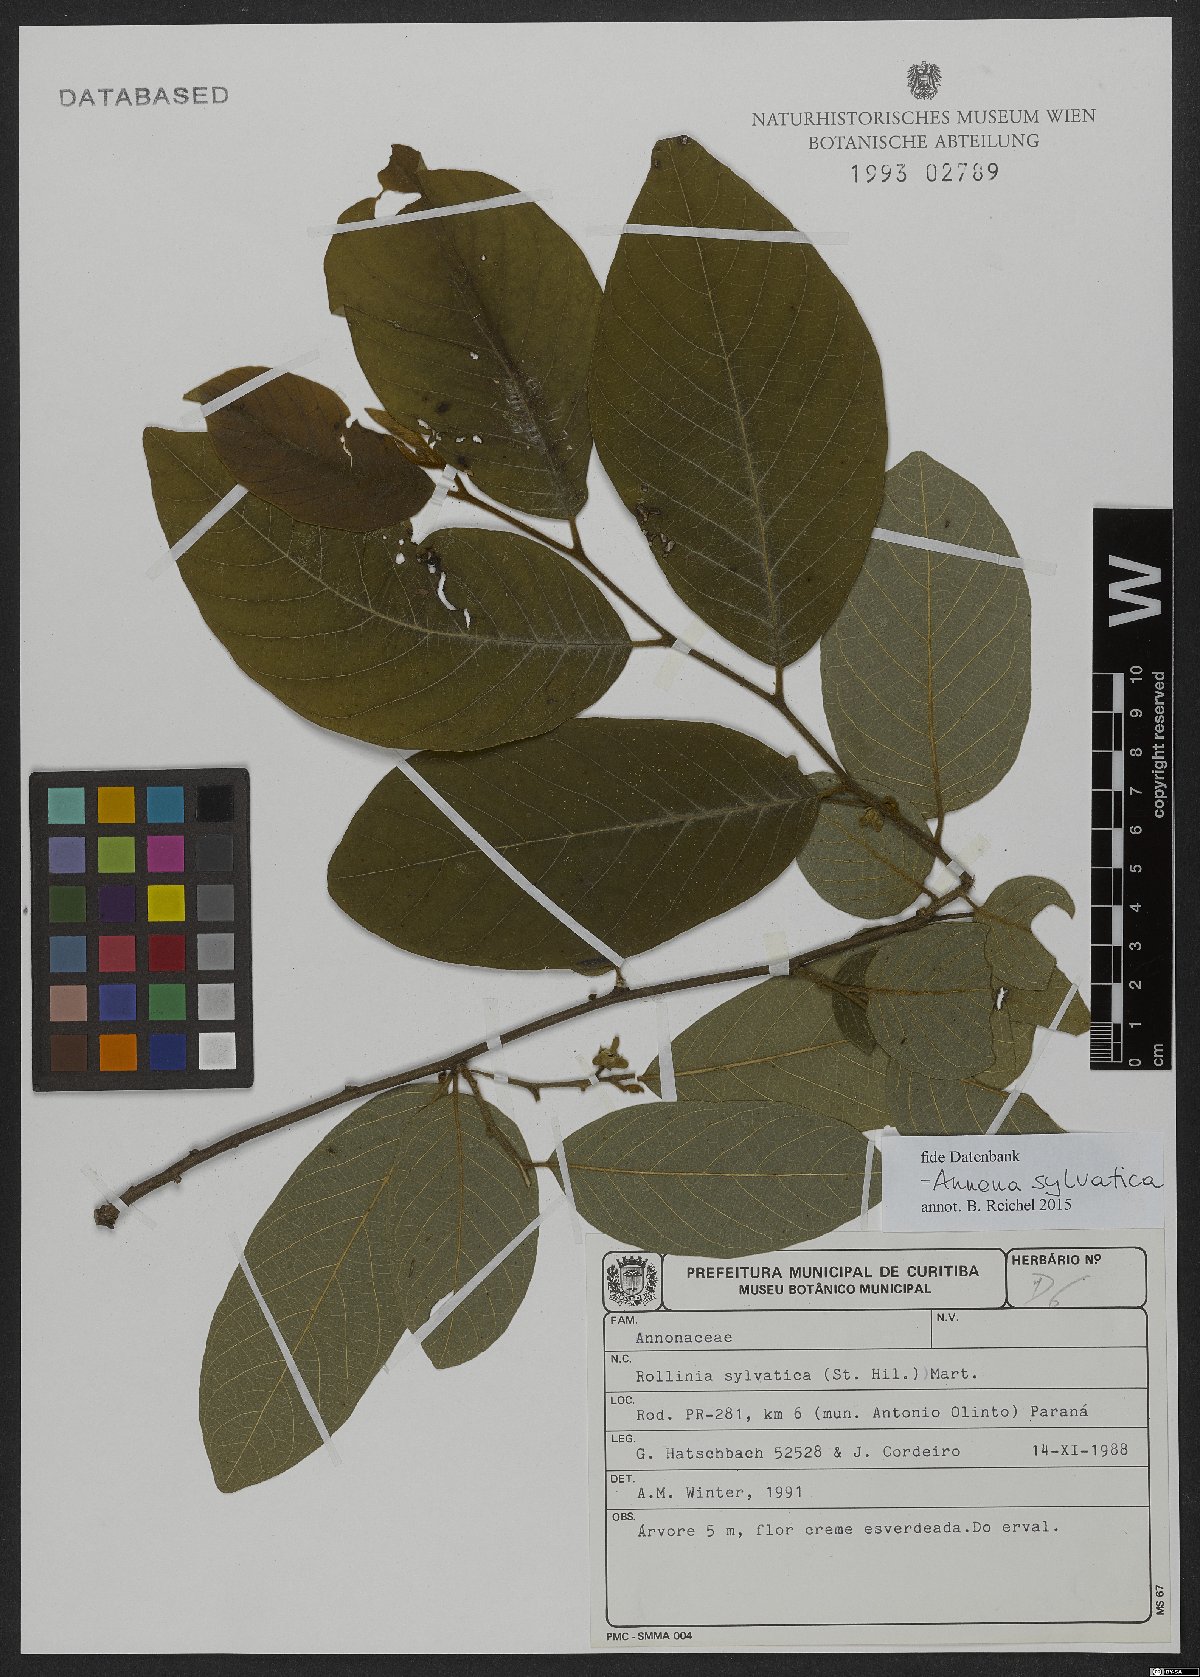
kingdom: Plantae
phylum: Tracheophyta
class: Magnoliopsida
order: Magnoliales
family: Annonaceae
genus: Annona
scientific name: Annona sylvatica
